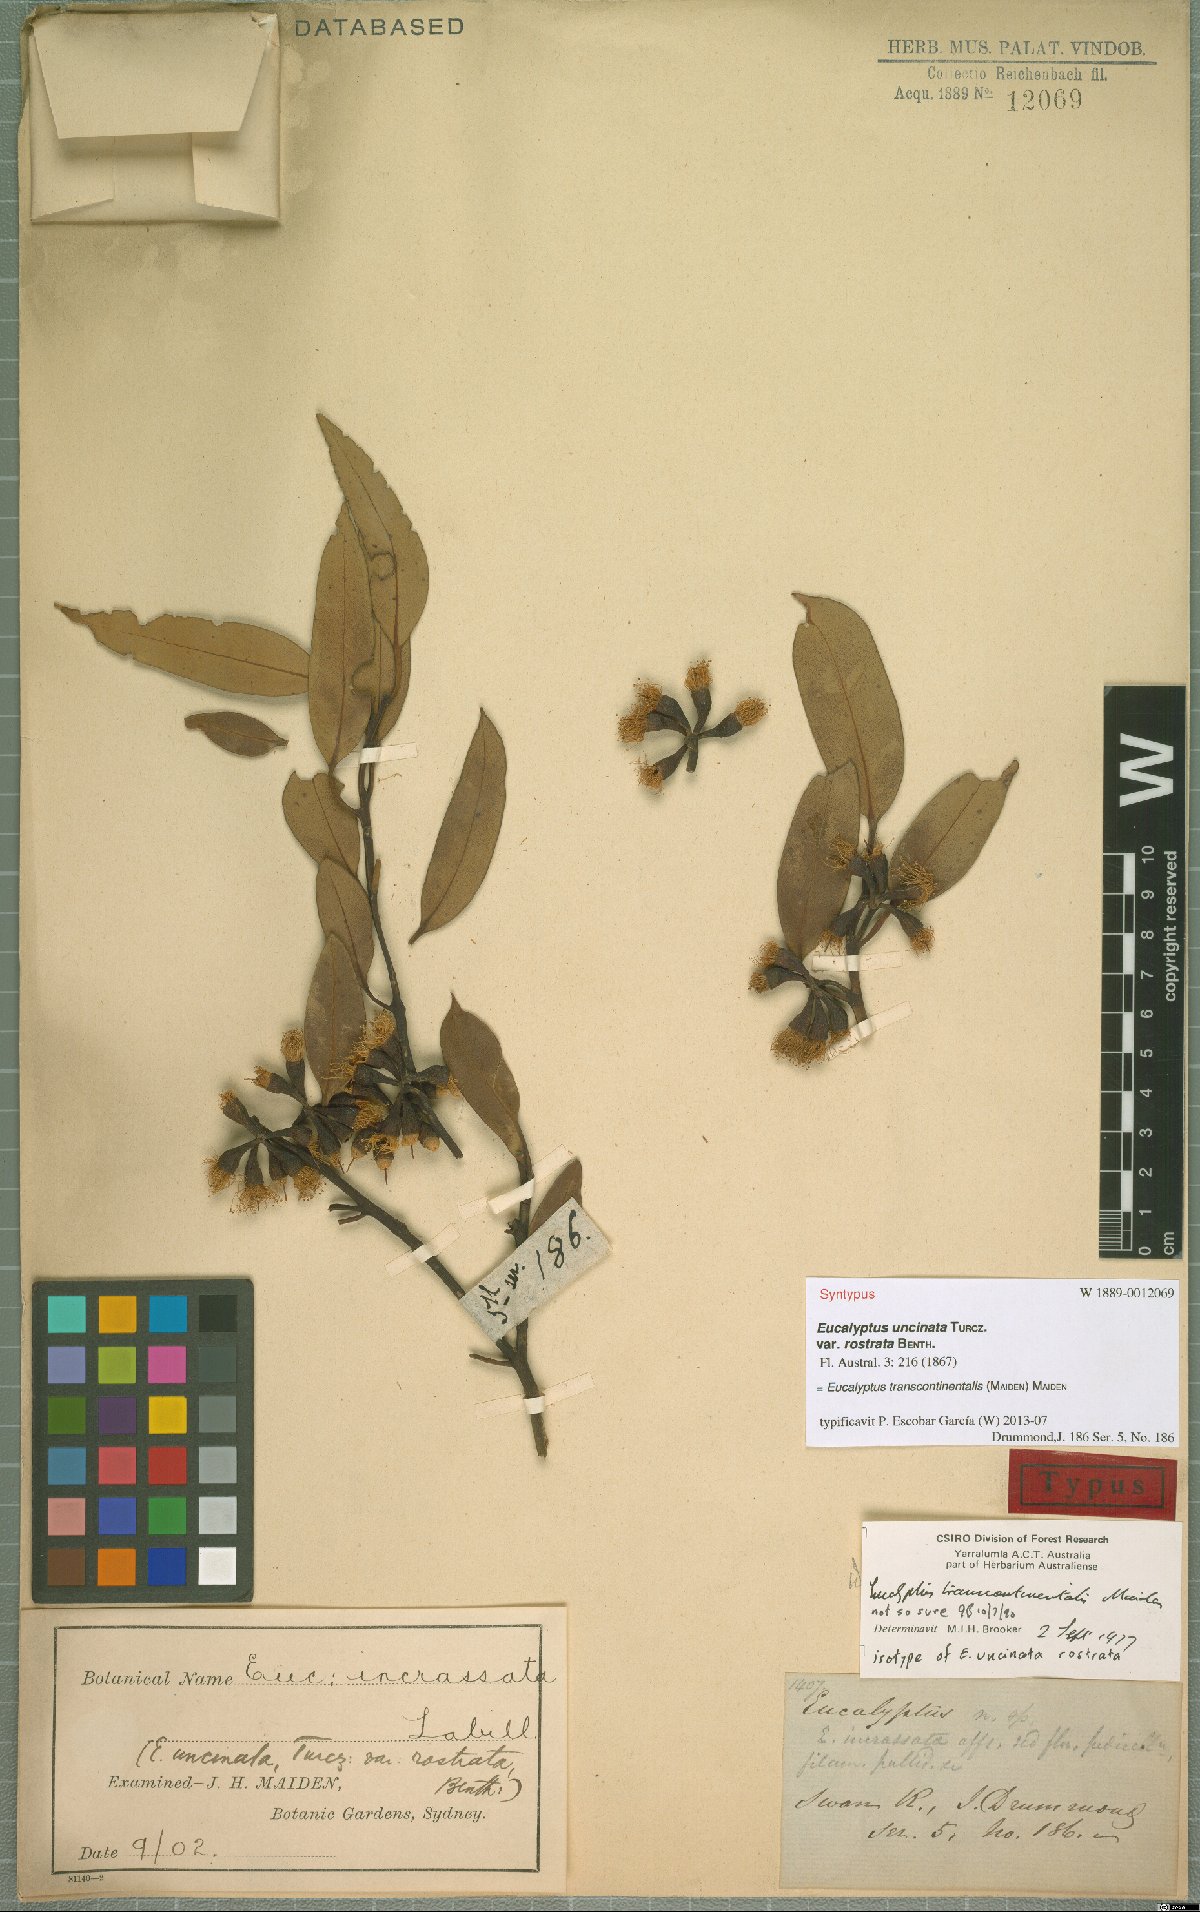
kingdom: Plantae
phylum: Tracheophyta
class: Magnoliopsida
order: Myrtales
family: Myrtaceae
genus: Eucalyptus
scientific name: Eucalyptus transcontinentalis
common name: Redwood
